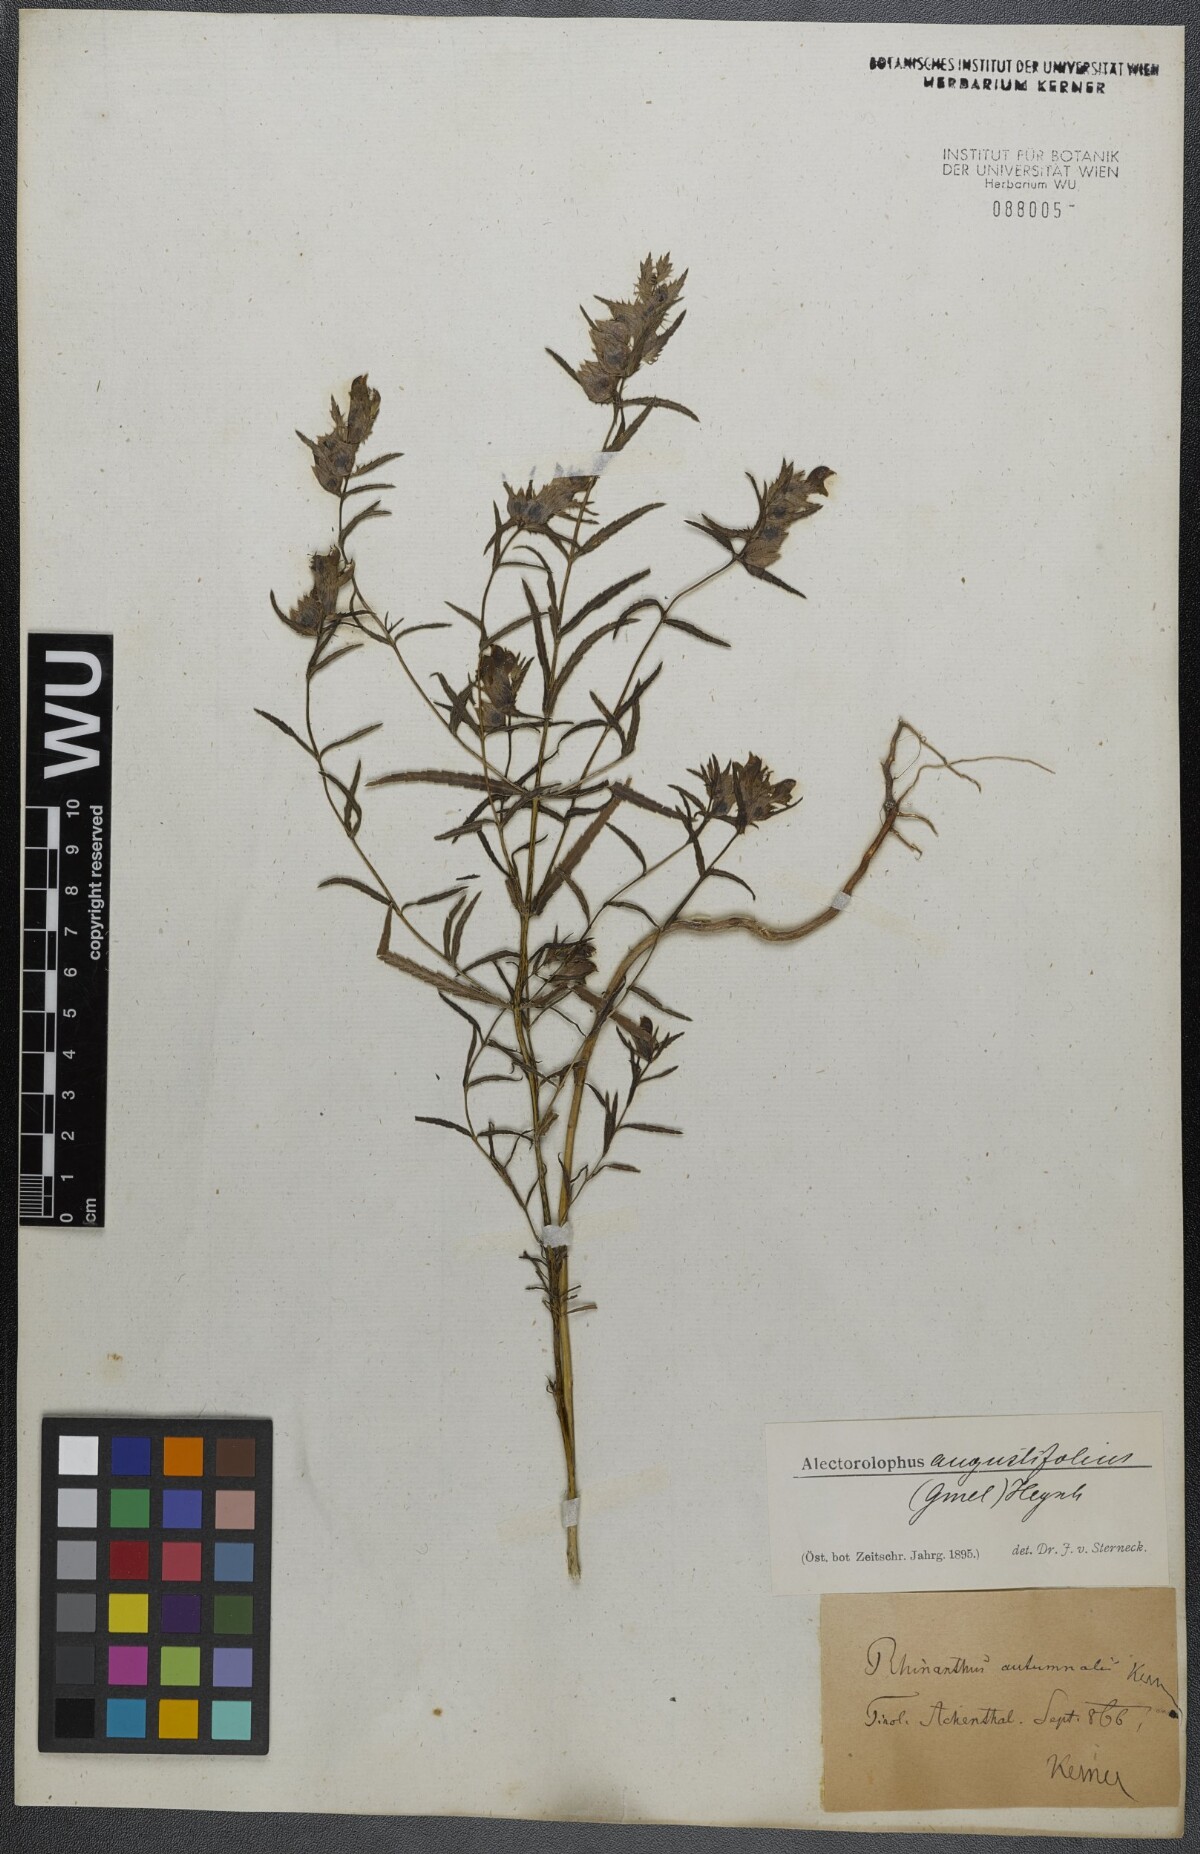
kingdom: Plantae
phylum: Tracheophyta
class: Magnoliopsida
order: Lamiales
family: Orobanchaceae
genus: Rhinanthus
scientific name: Rhinanthus
